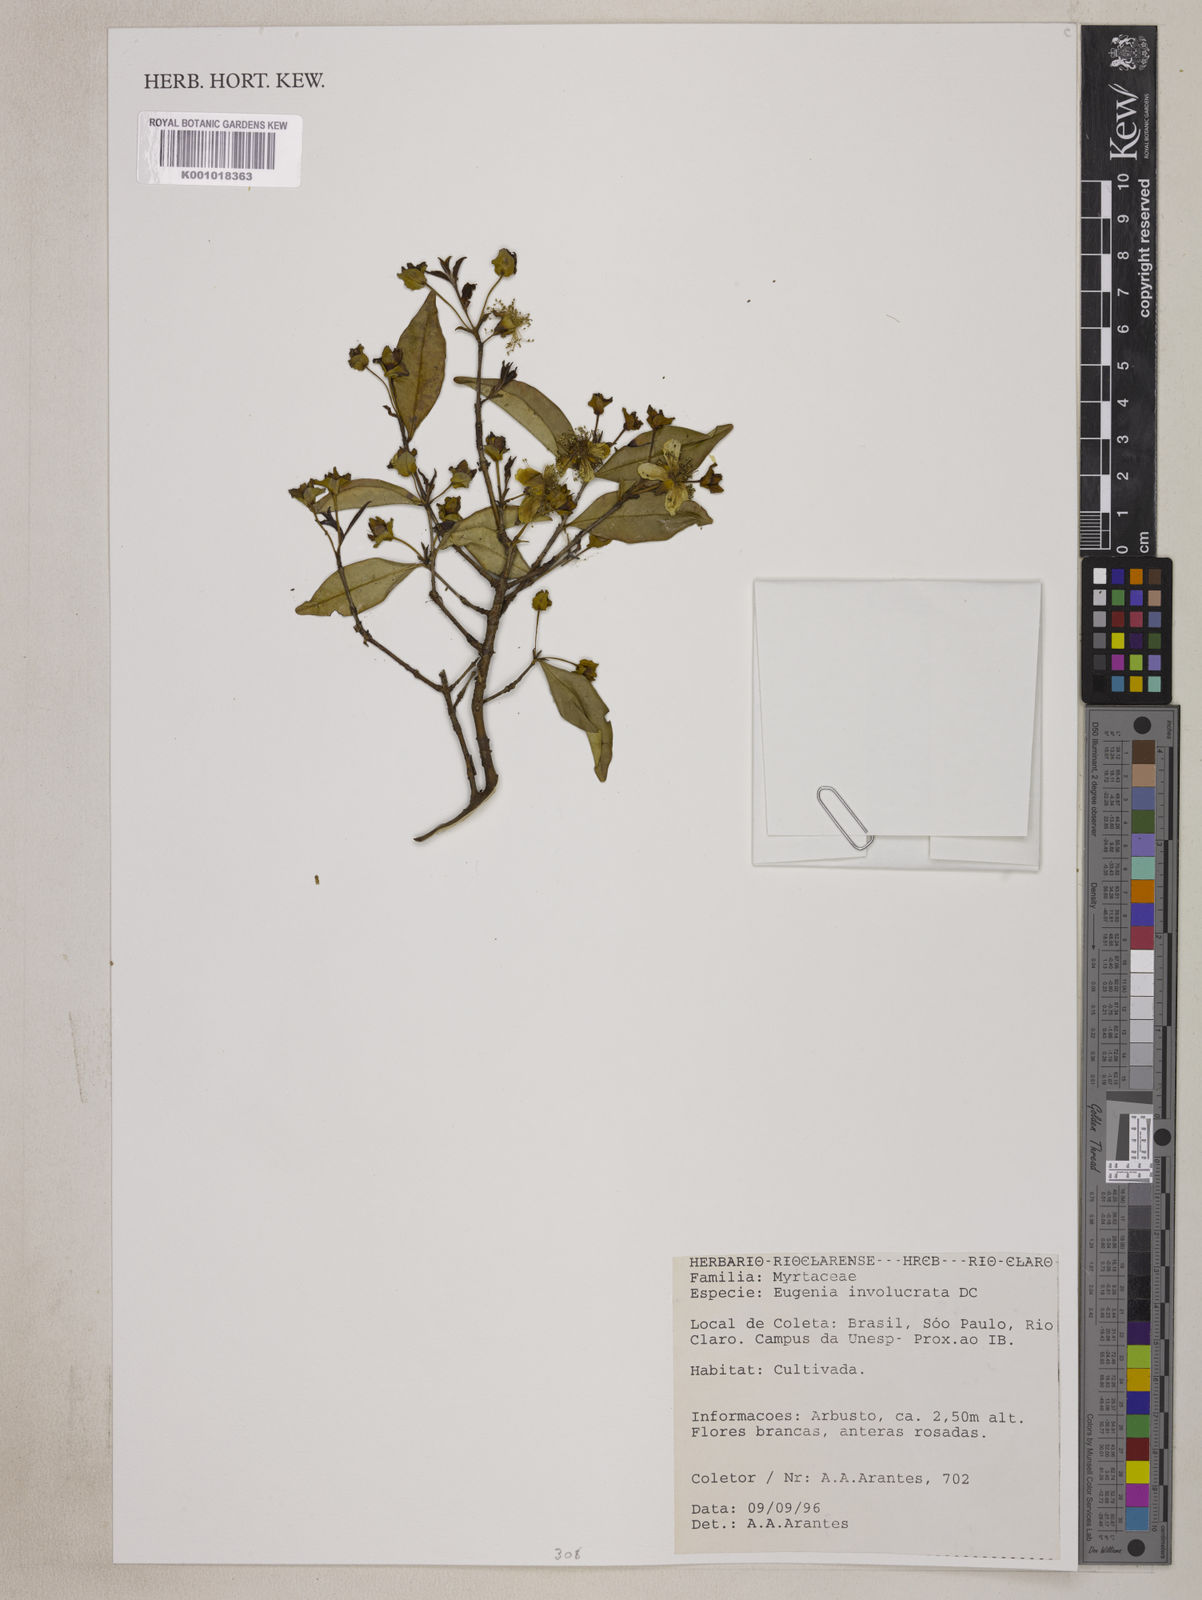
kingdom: Plantae
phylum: Tracheophyta
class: Magnoliopsida
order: Myrtales
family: Myrtaceae
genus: Eugenia
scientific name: Eugenia involucrata
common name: Cherry-of-the-rio grande
